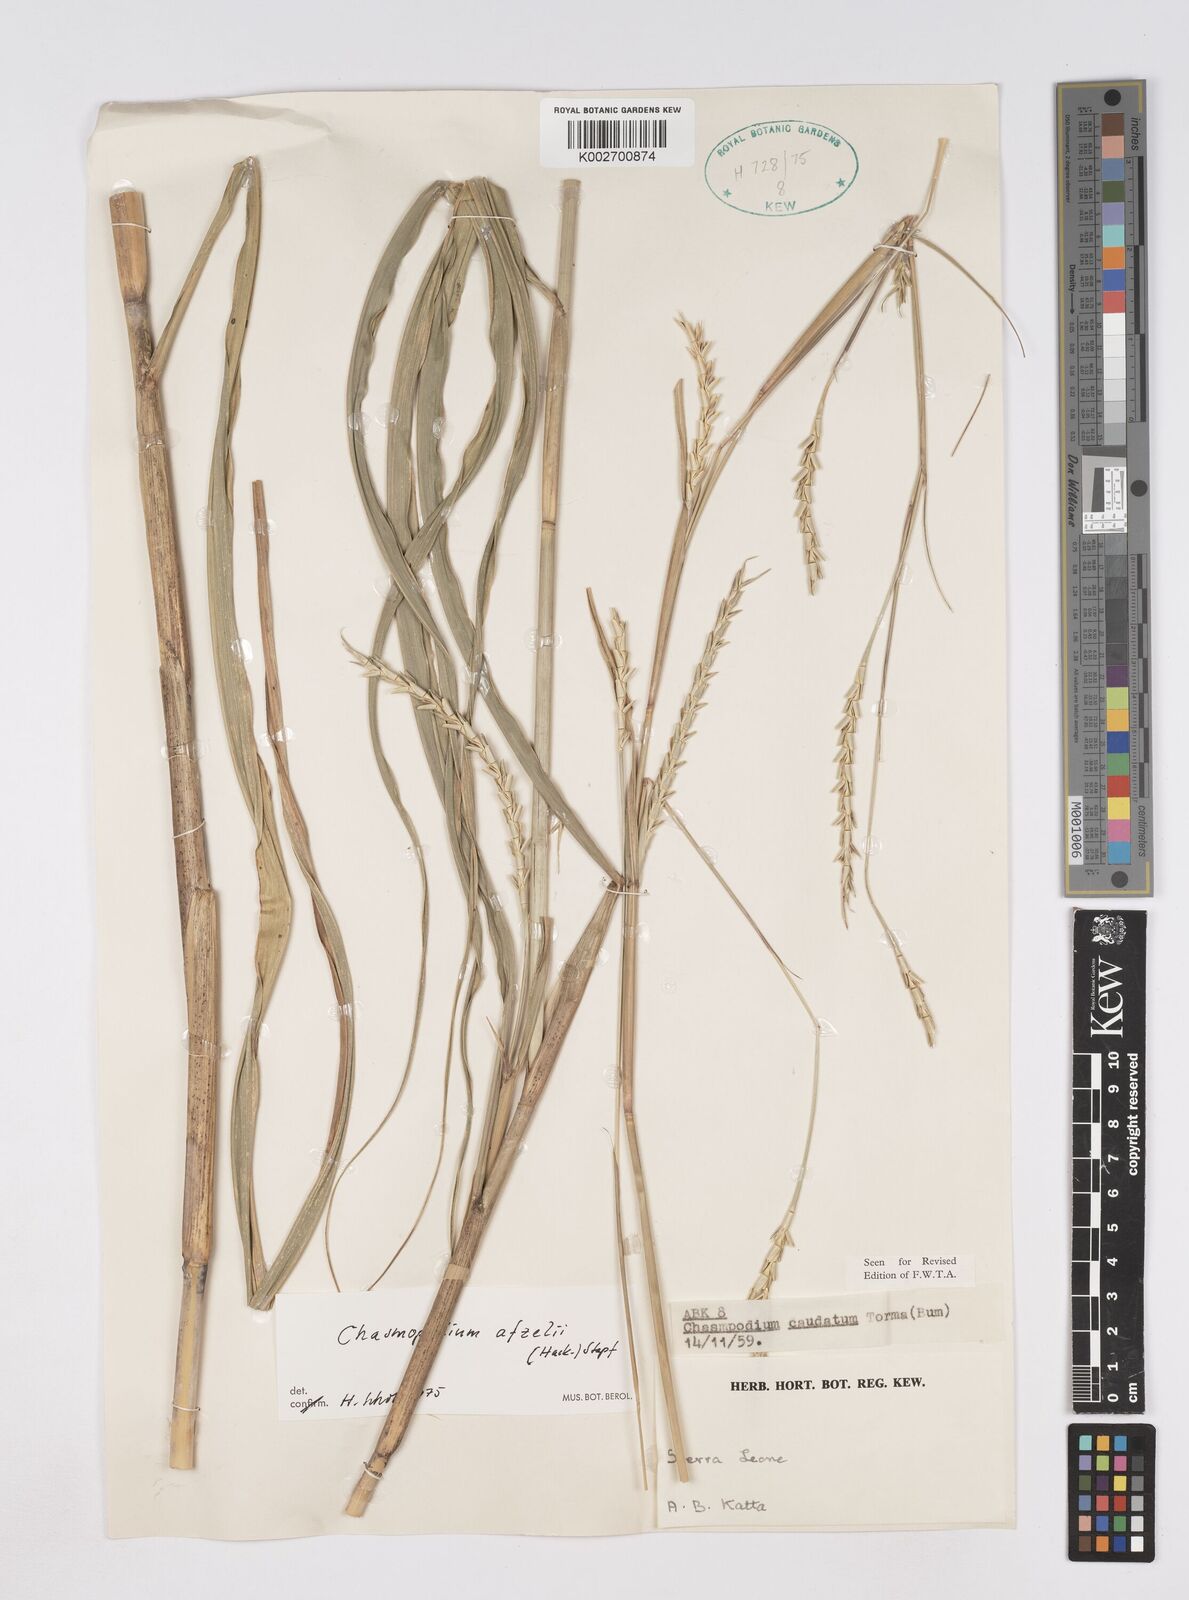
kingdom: Plantae
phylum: Tracheophyta
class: Liliopsida
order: Poales
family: Poaceae
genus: Chasmopodium
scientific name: Chasmopodium caudatum
